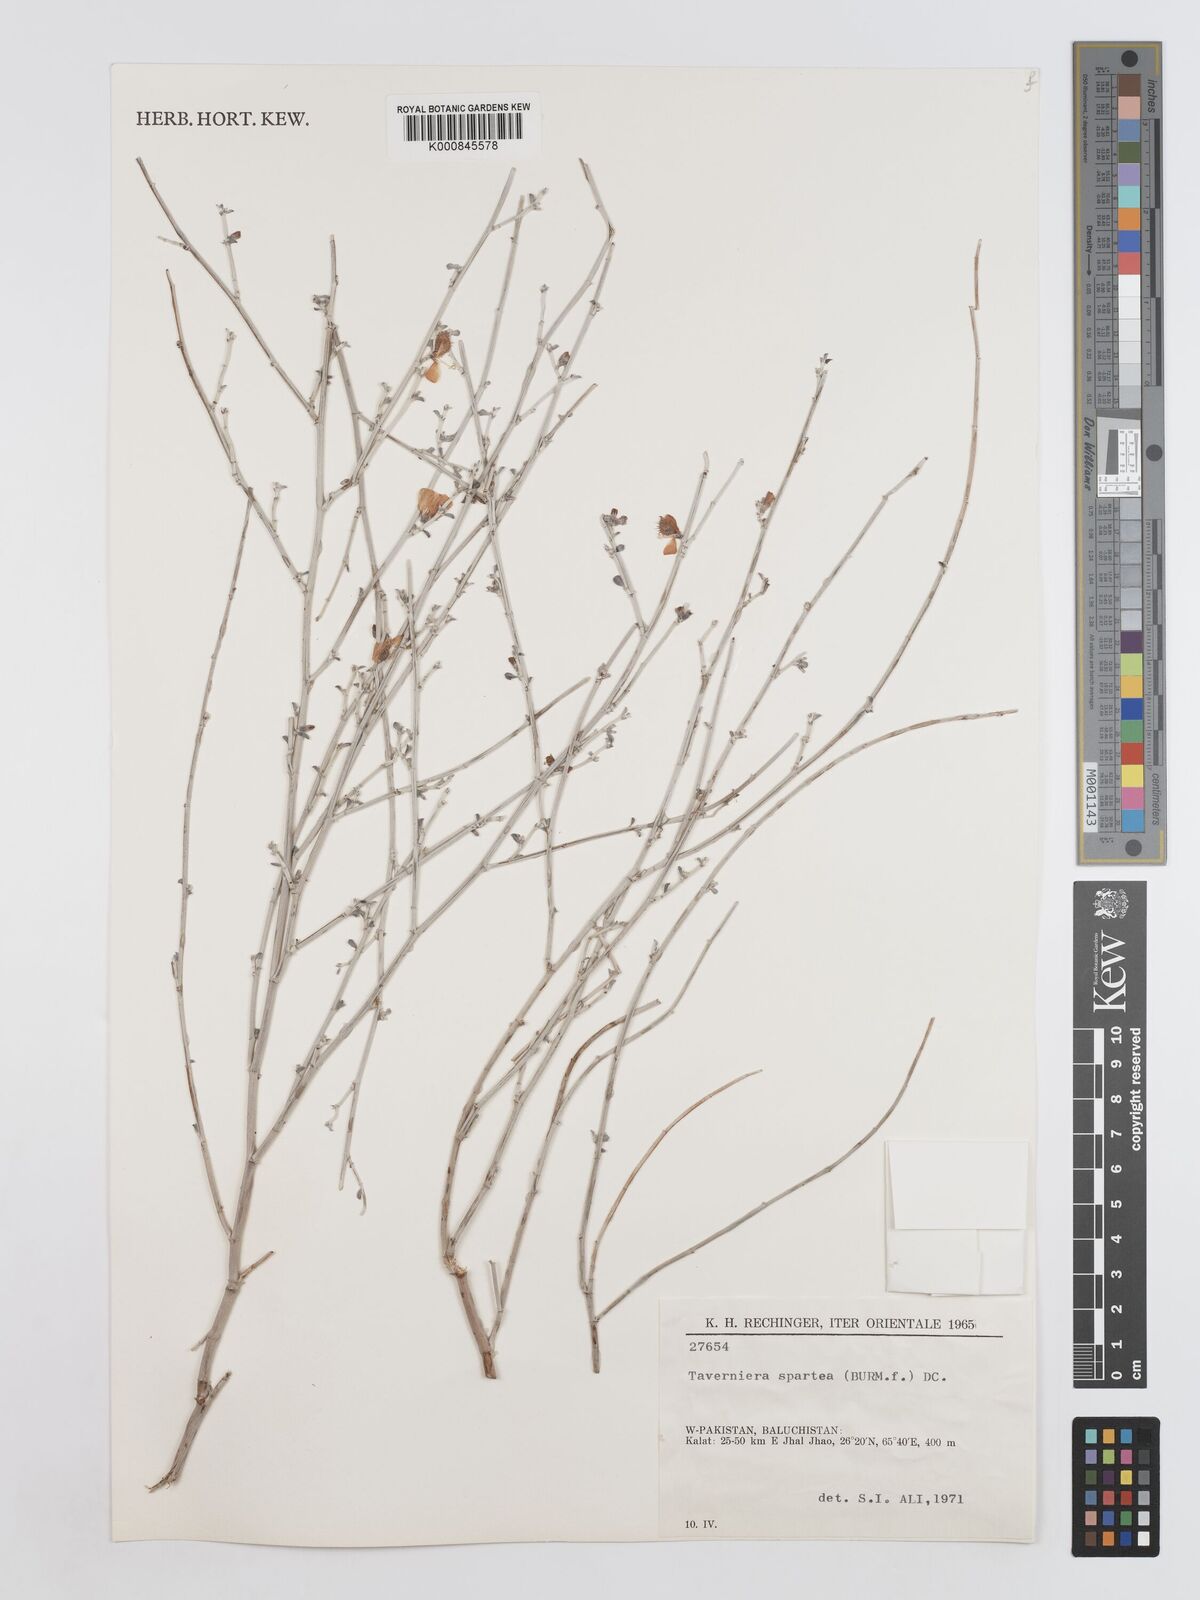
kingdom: Plantae
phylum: Tracheophyta
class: Magnoliopsida
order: Fabales
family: Fabaceae
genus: Taverniera
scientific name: Taverniera spartea
